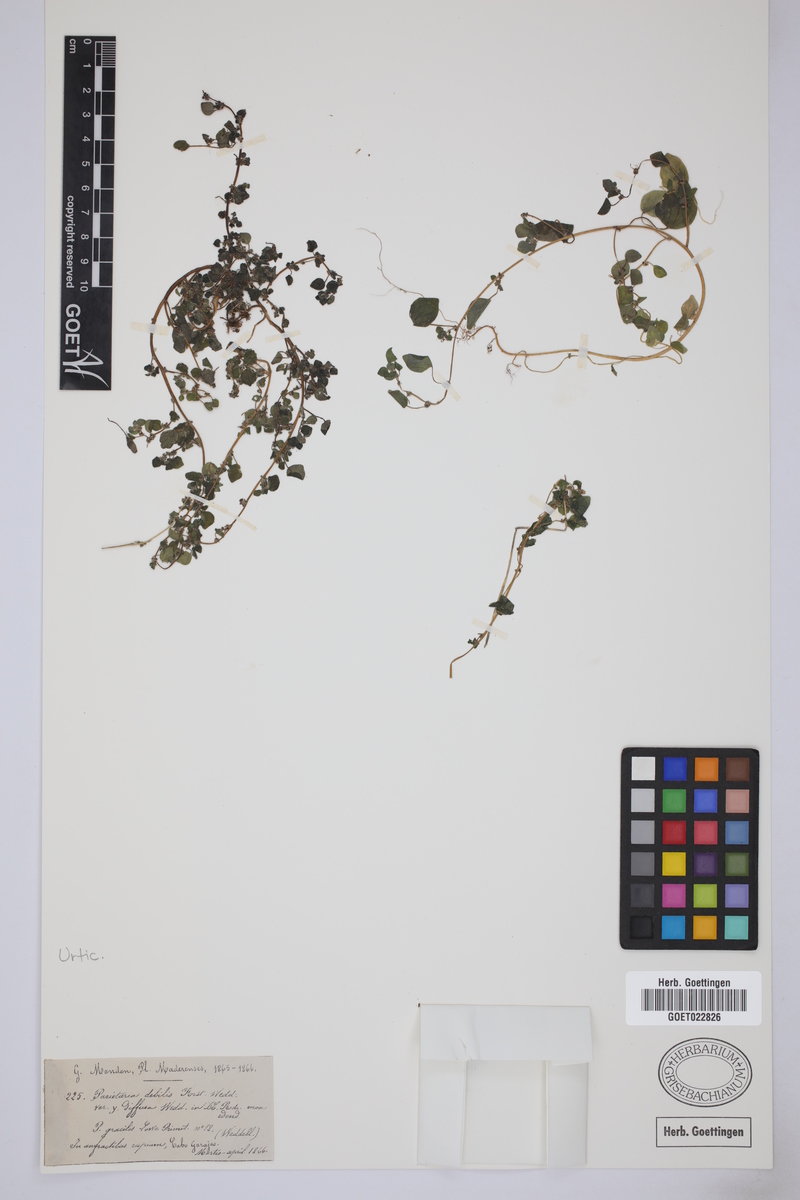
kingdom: Plantae
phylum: Tracheophyta
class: Magnoliopsida
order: Rosales
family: Urticaceae
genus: Parietaria
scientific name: Parietaria debilis
